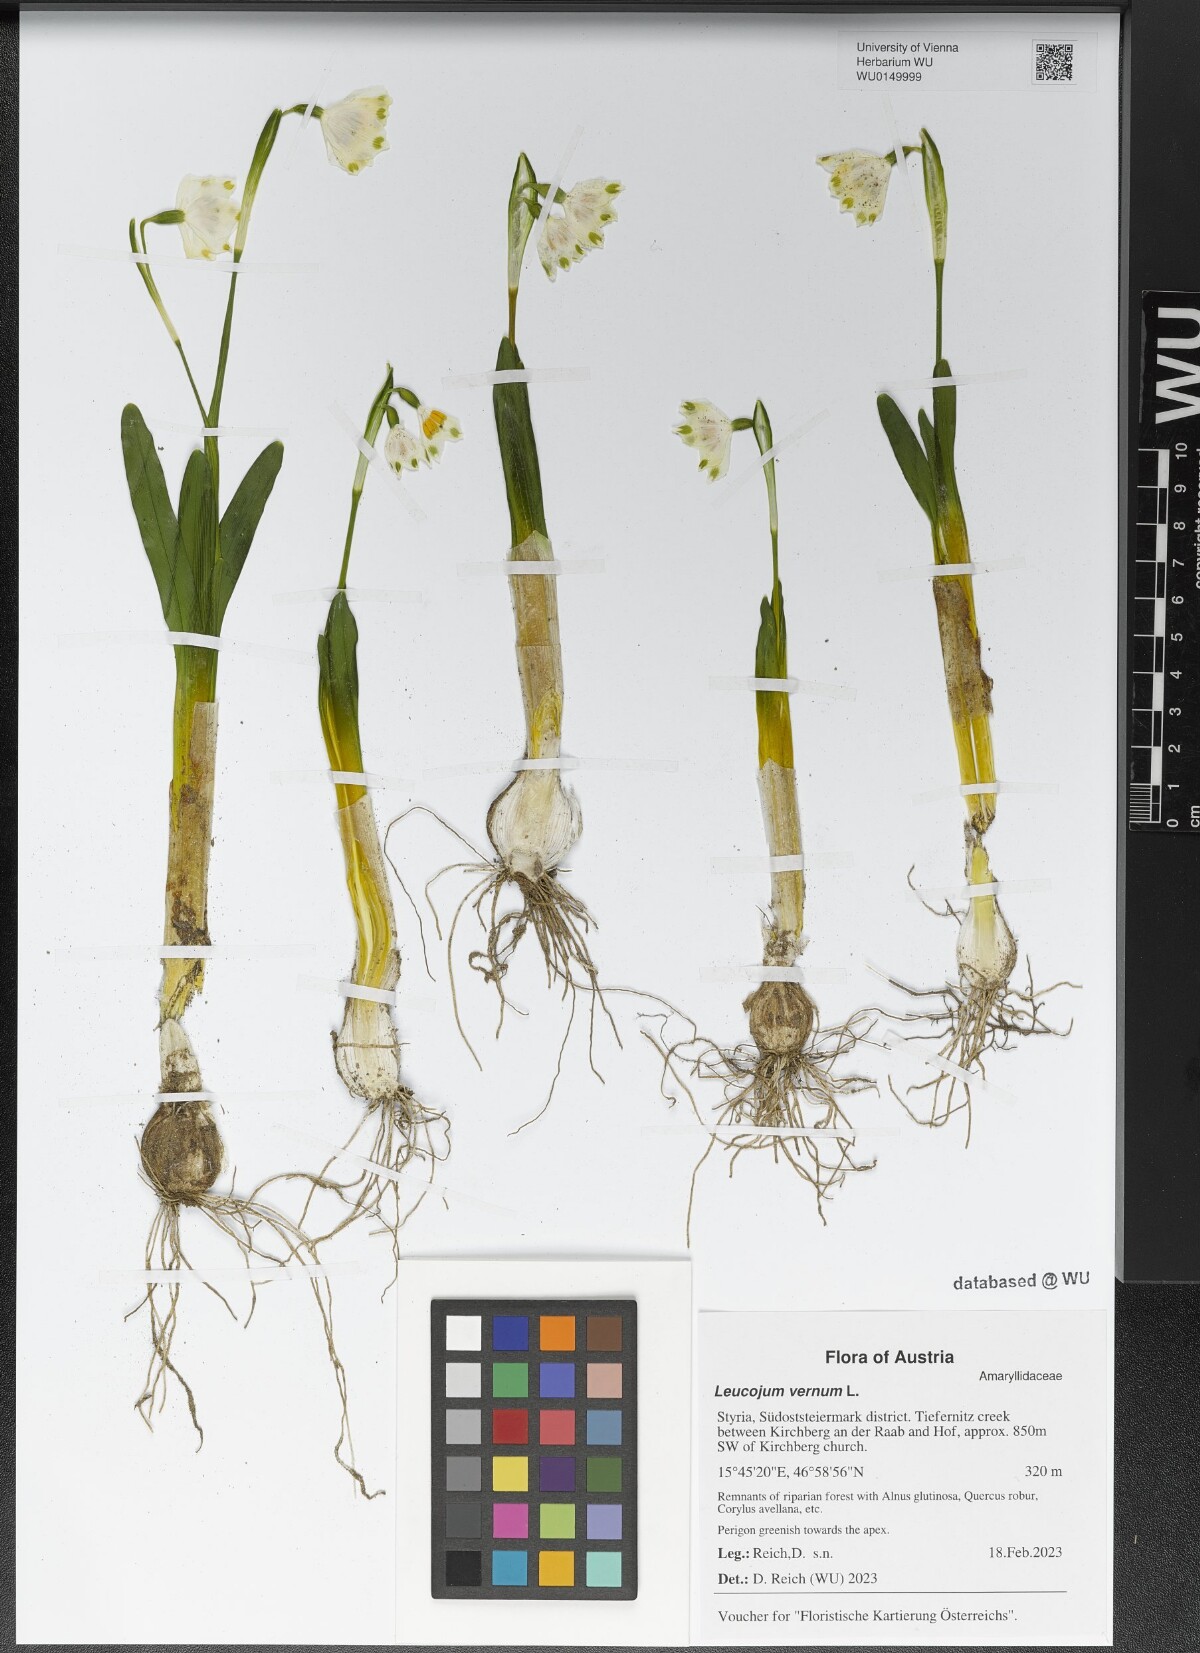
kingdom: Plantae
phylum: Tracheophyta
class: Liliopsida
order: Asparagales
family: Amaryllidaceae
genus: Leucojum
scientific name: Leucojum vernum
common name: Spring snowflake
